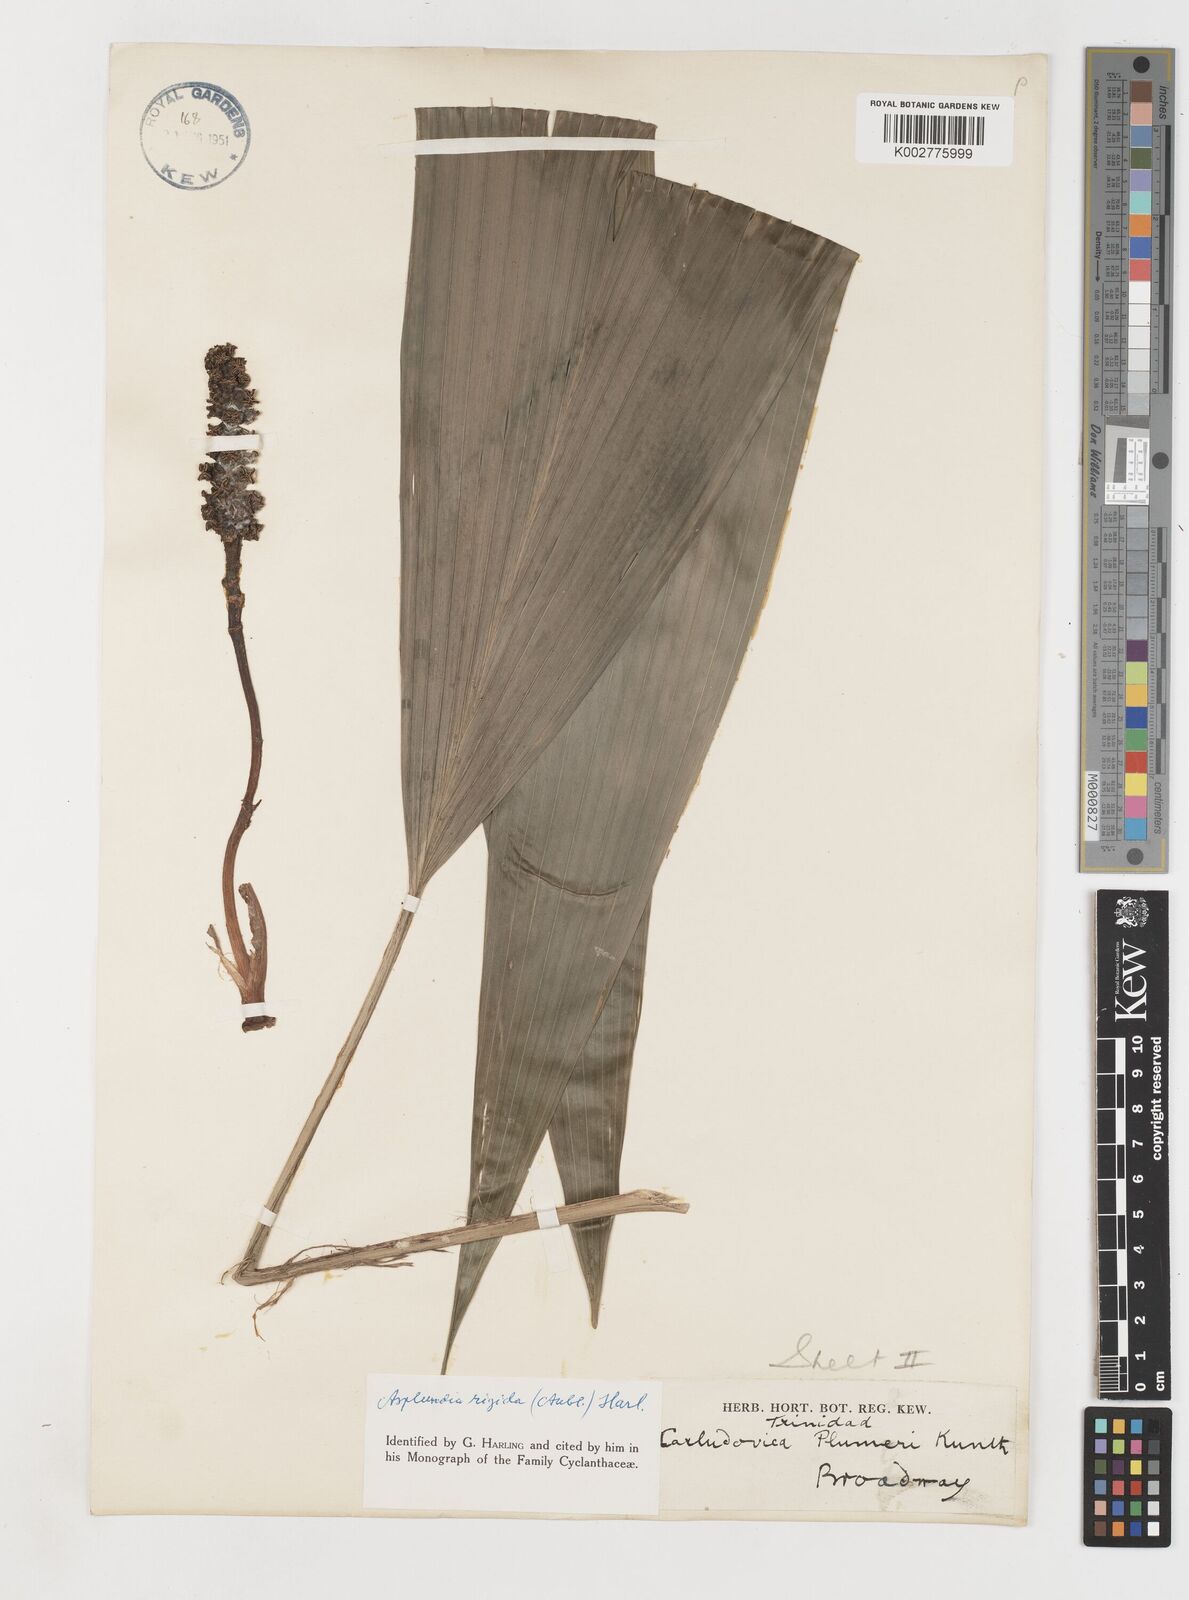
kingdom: Plantae
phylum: Tracheophyta
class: Liliopsida
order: Pandanales
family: Cyclanthaceae
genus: Asplundia
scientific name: Asplundia rigida
